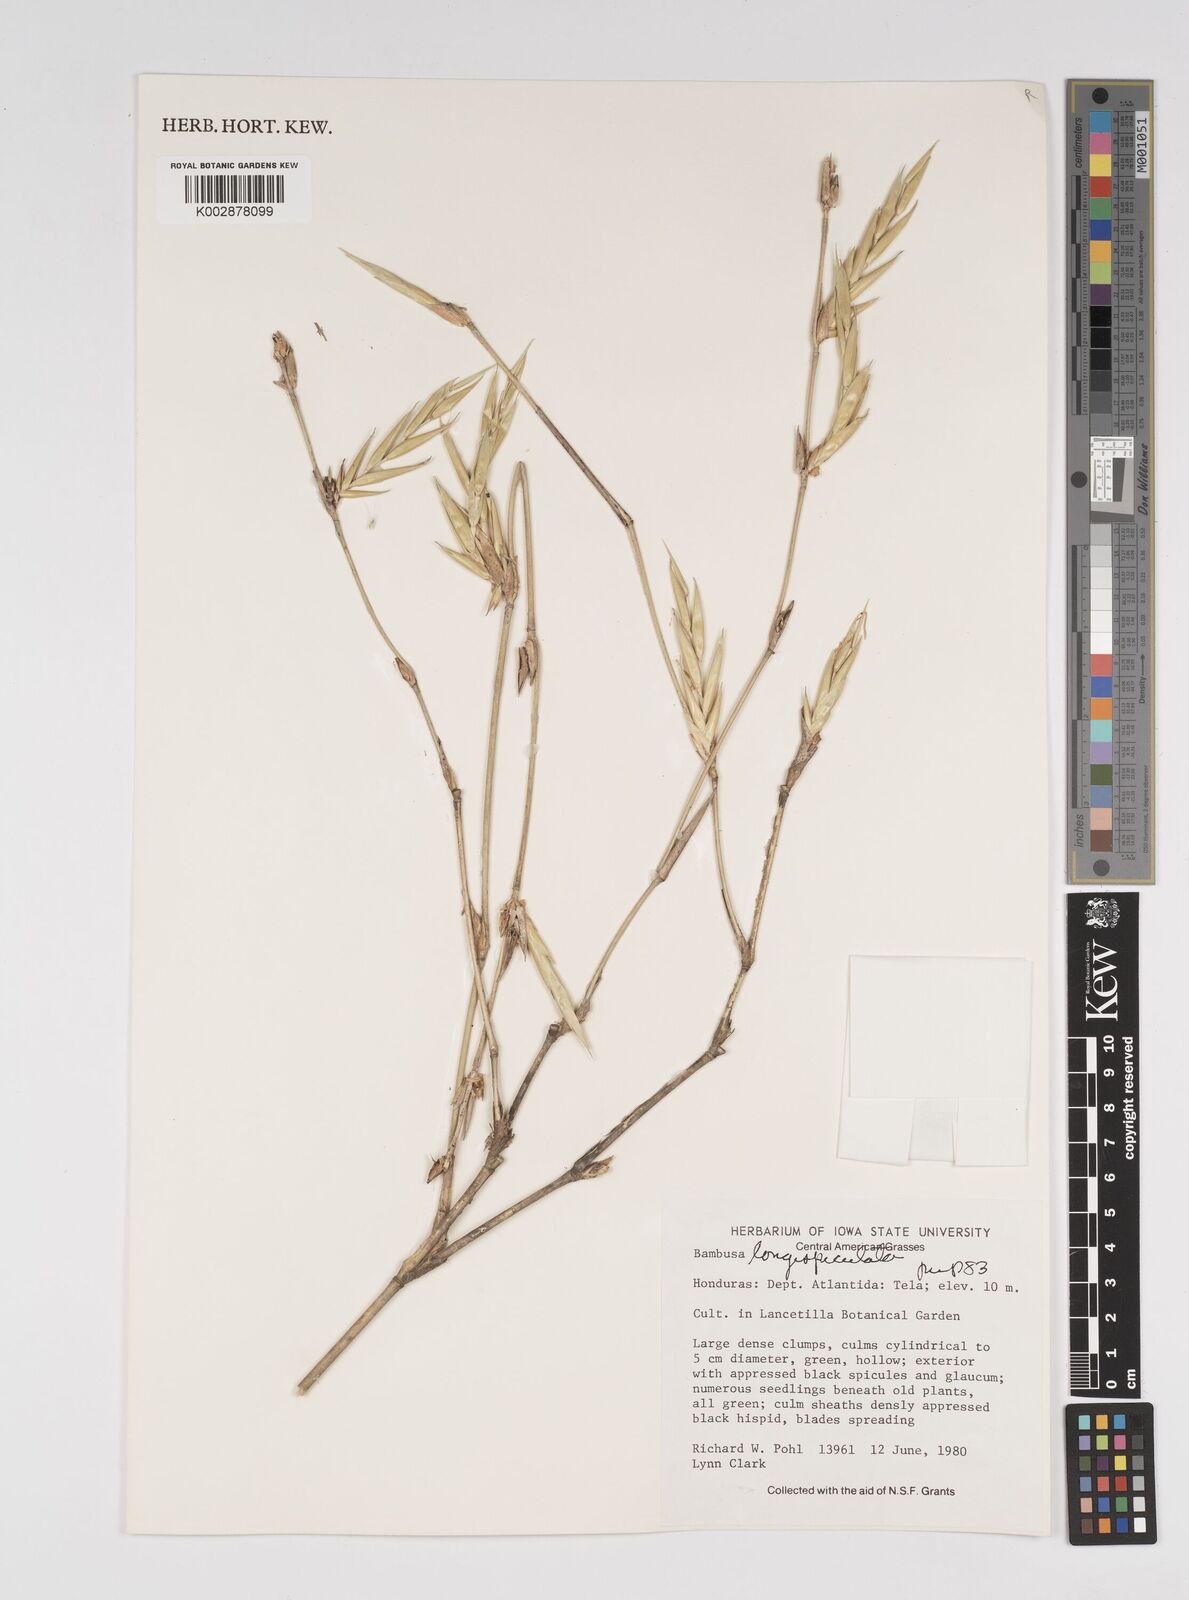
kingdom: Plantae
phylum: Tracheophyta
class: Liliopsida
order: Poales
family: Poaceae
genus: Bambusa
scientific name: Bambusa longispiculata
